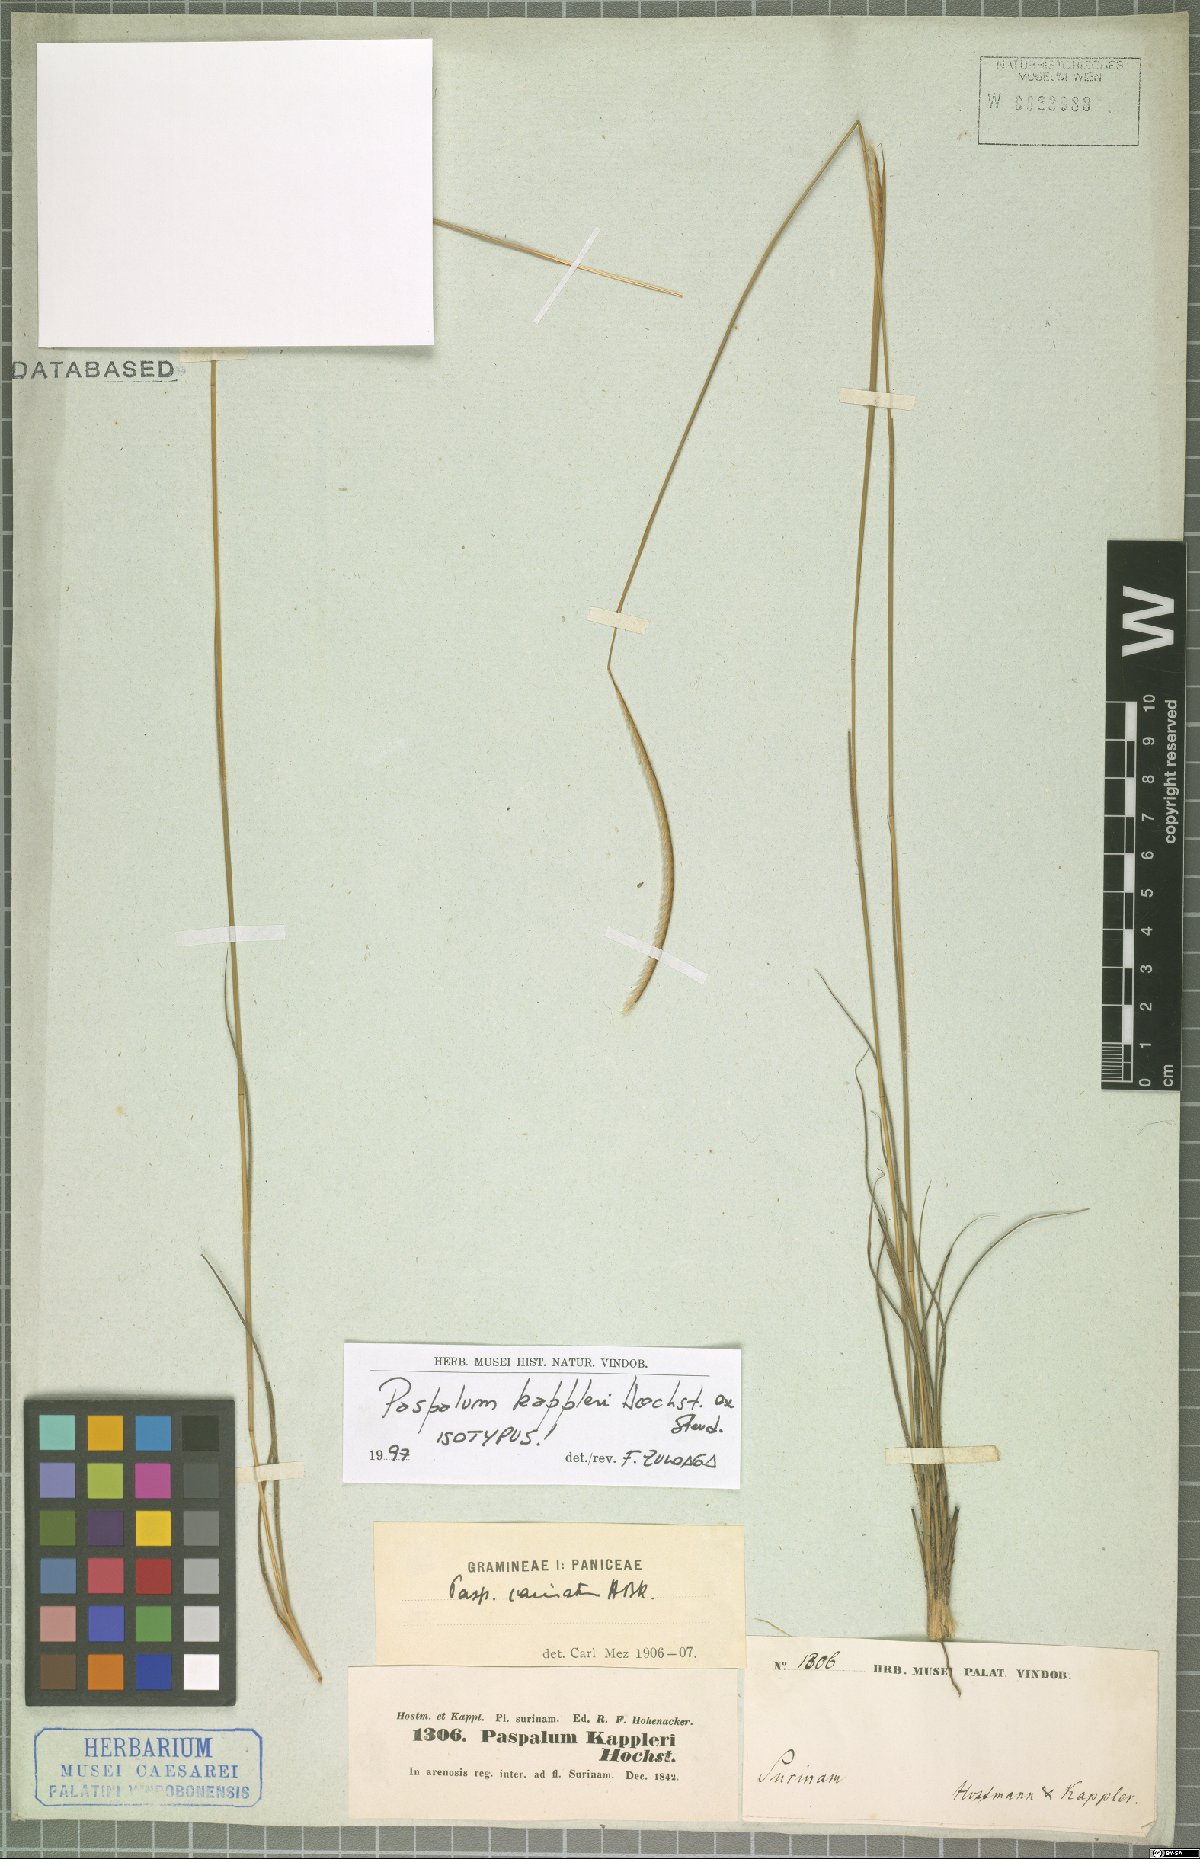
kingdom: Plantae
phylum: Tracheophyta
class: Liliopsida
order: Poales
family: Poaceae
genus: Paspalum
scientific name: Paspalum carinatum
